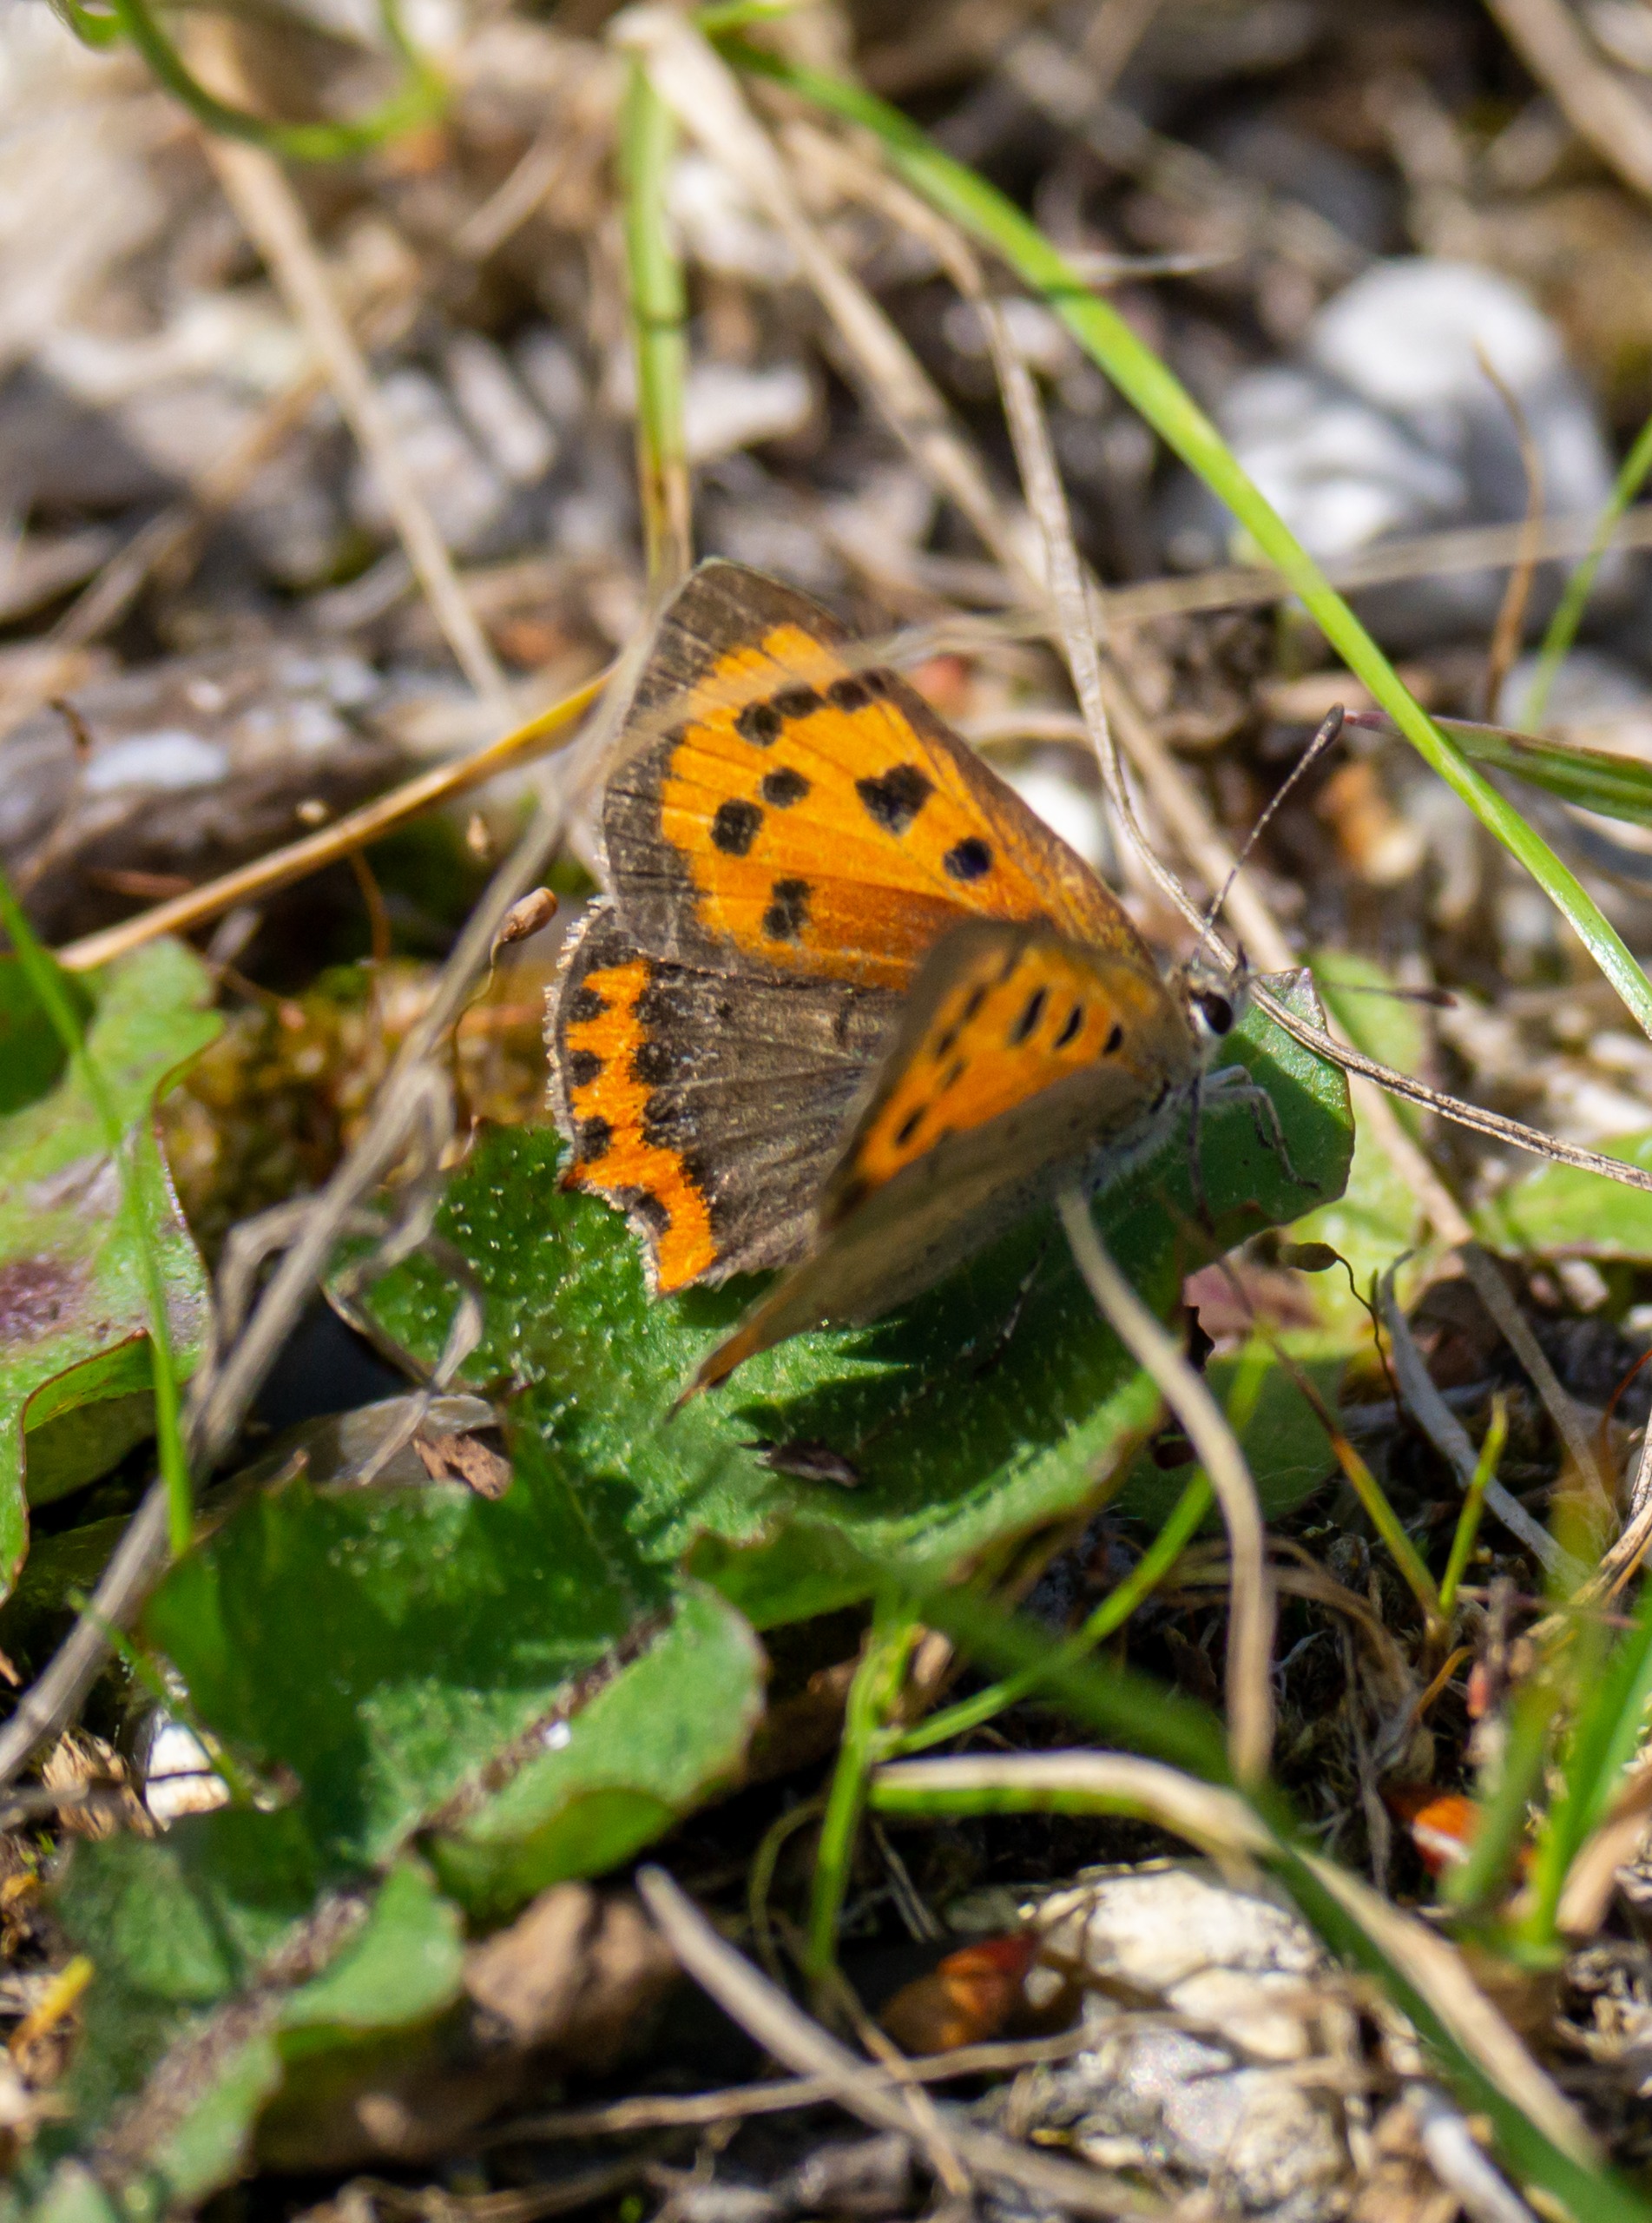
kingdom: Animalia
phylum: Arthropoda
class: Insecta
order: Lepidoptera
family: Lycaenidae
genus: Lycaena
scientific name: Lycaena phlaeas
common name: Lille ildfugl
